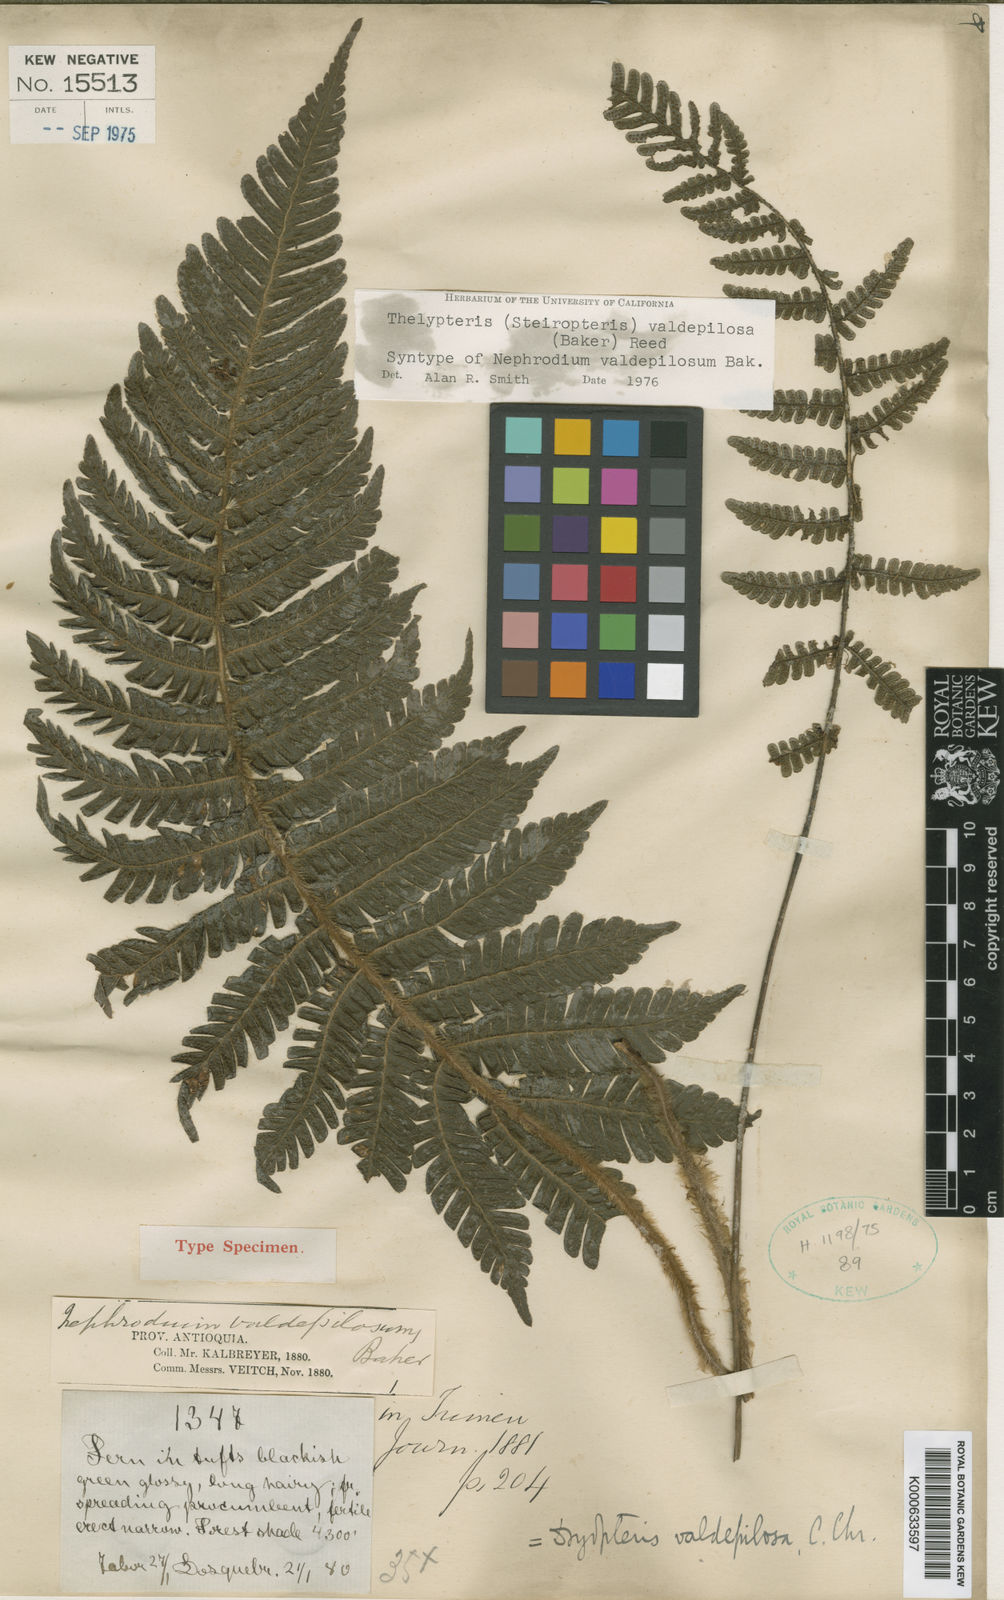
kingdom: Plantae
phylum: Tracheophyta
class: Polypodiopsida
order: Polypodiales
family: Thelypteridaceae
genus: Steiropteris
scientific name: Steiropteris valdepilosa
